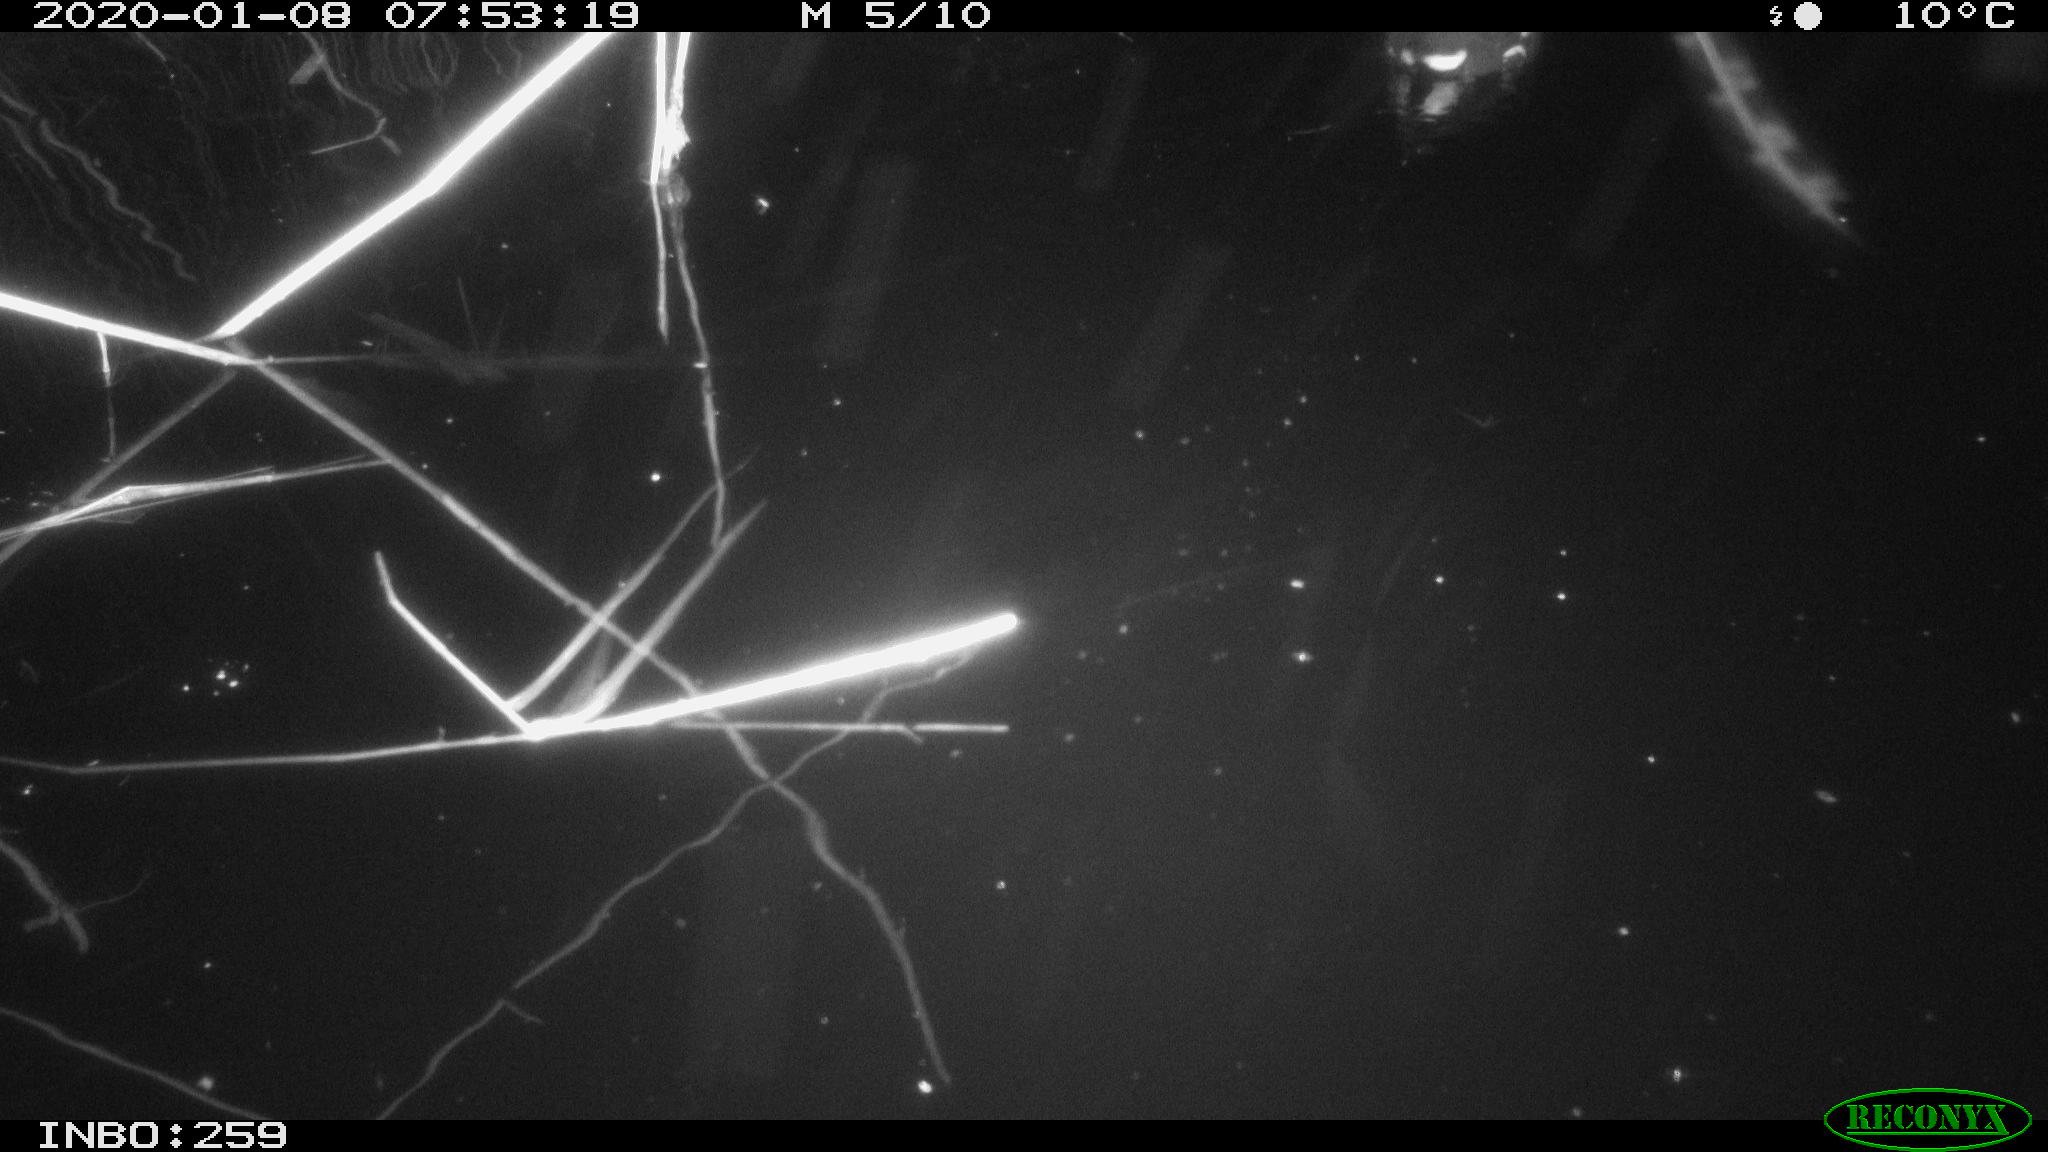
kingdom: Animalia
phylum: Chordata
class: Aves
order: Gruiformes
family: Rallidae
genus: Gallinula
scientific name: Gallinula chloropus
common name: Common moorhen
